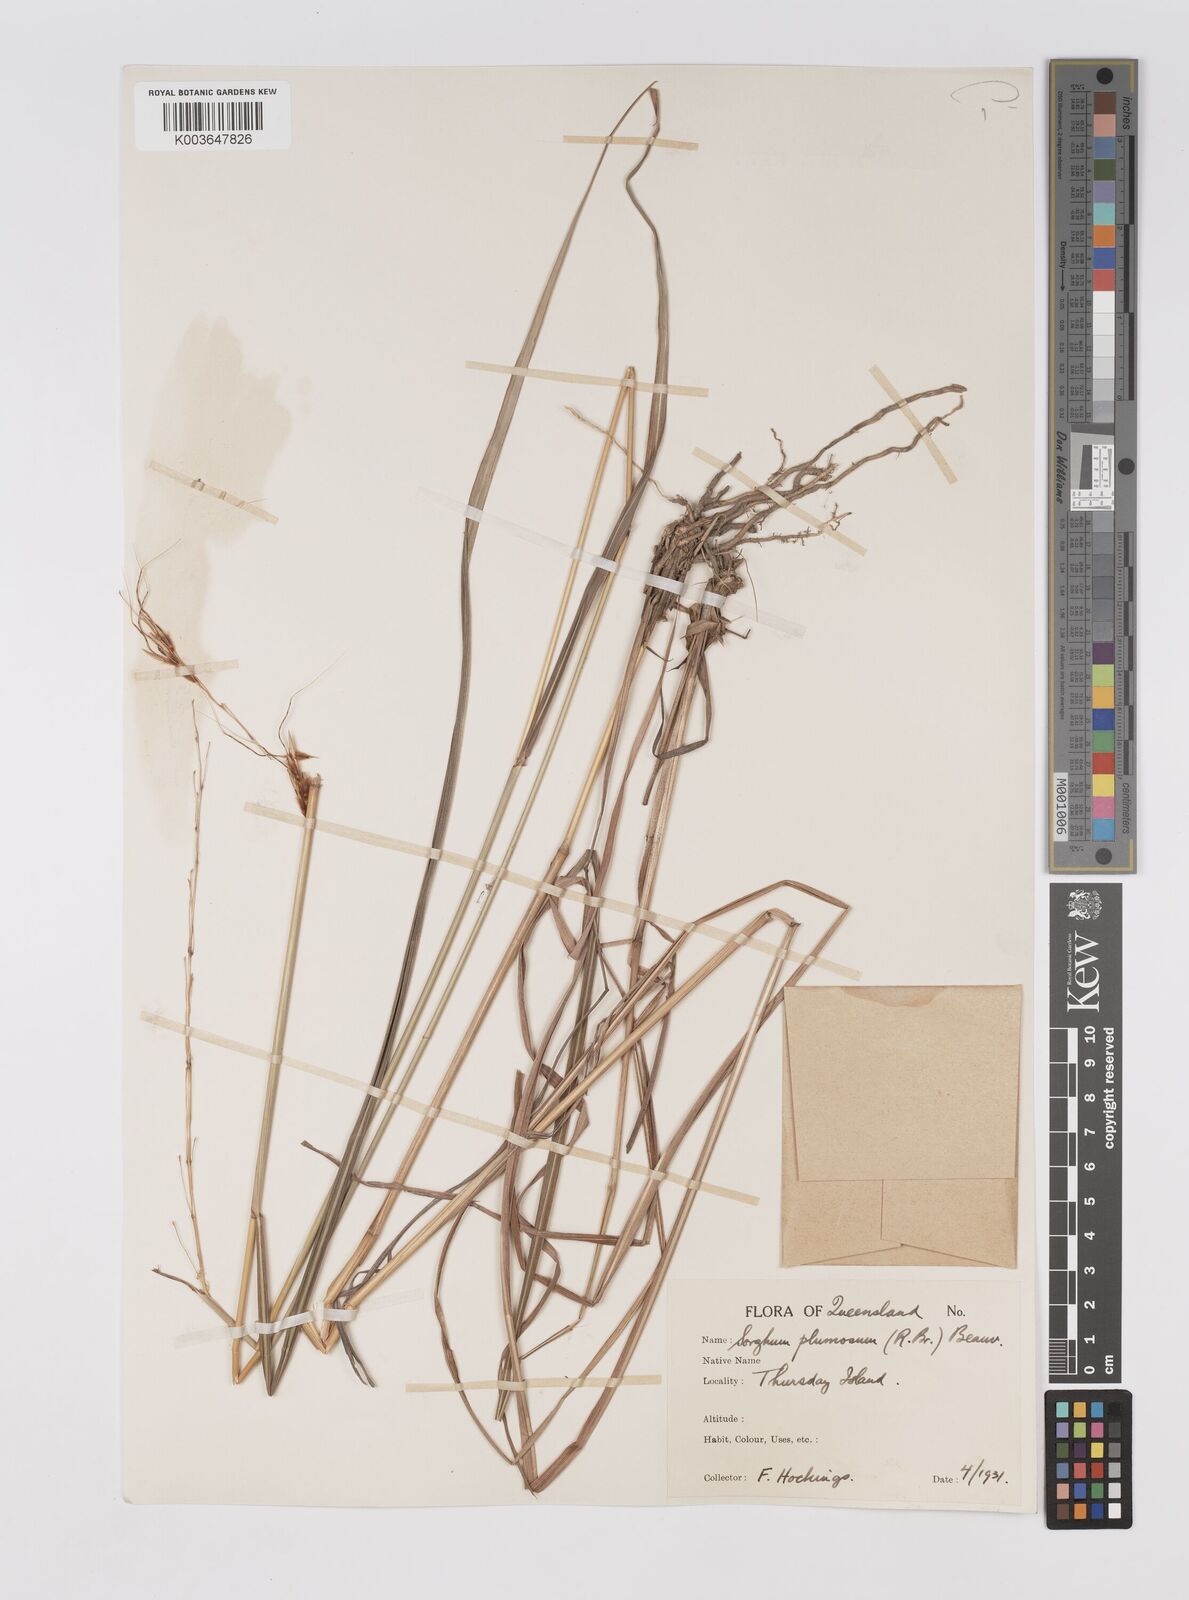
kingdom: Plantae
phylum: Tracheophyta
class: Liliopsida
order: Poales
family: Poaceae
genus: Sarga
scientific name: Sarga plumosa
